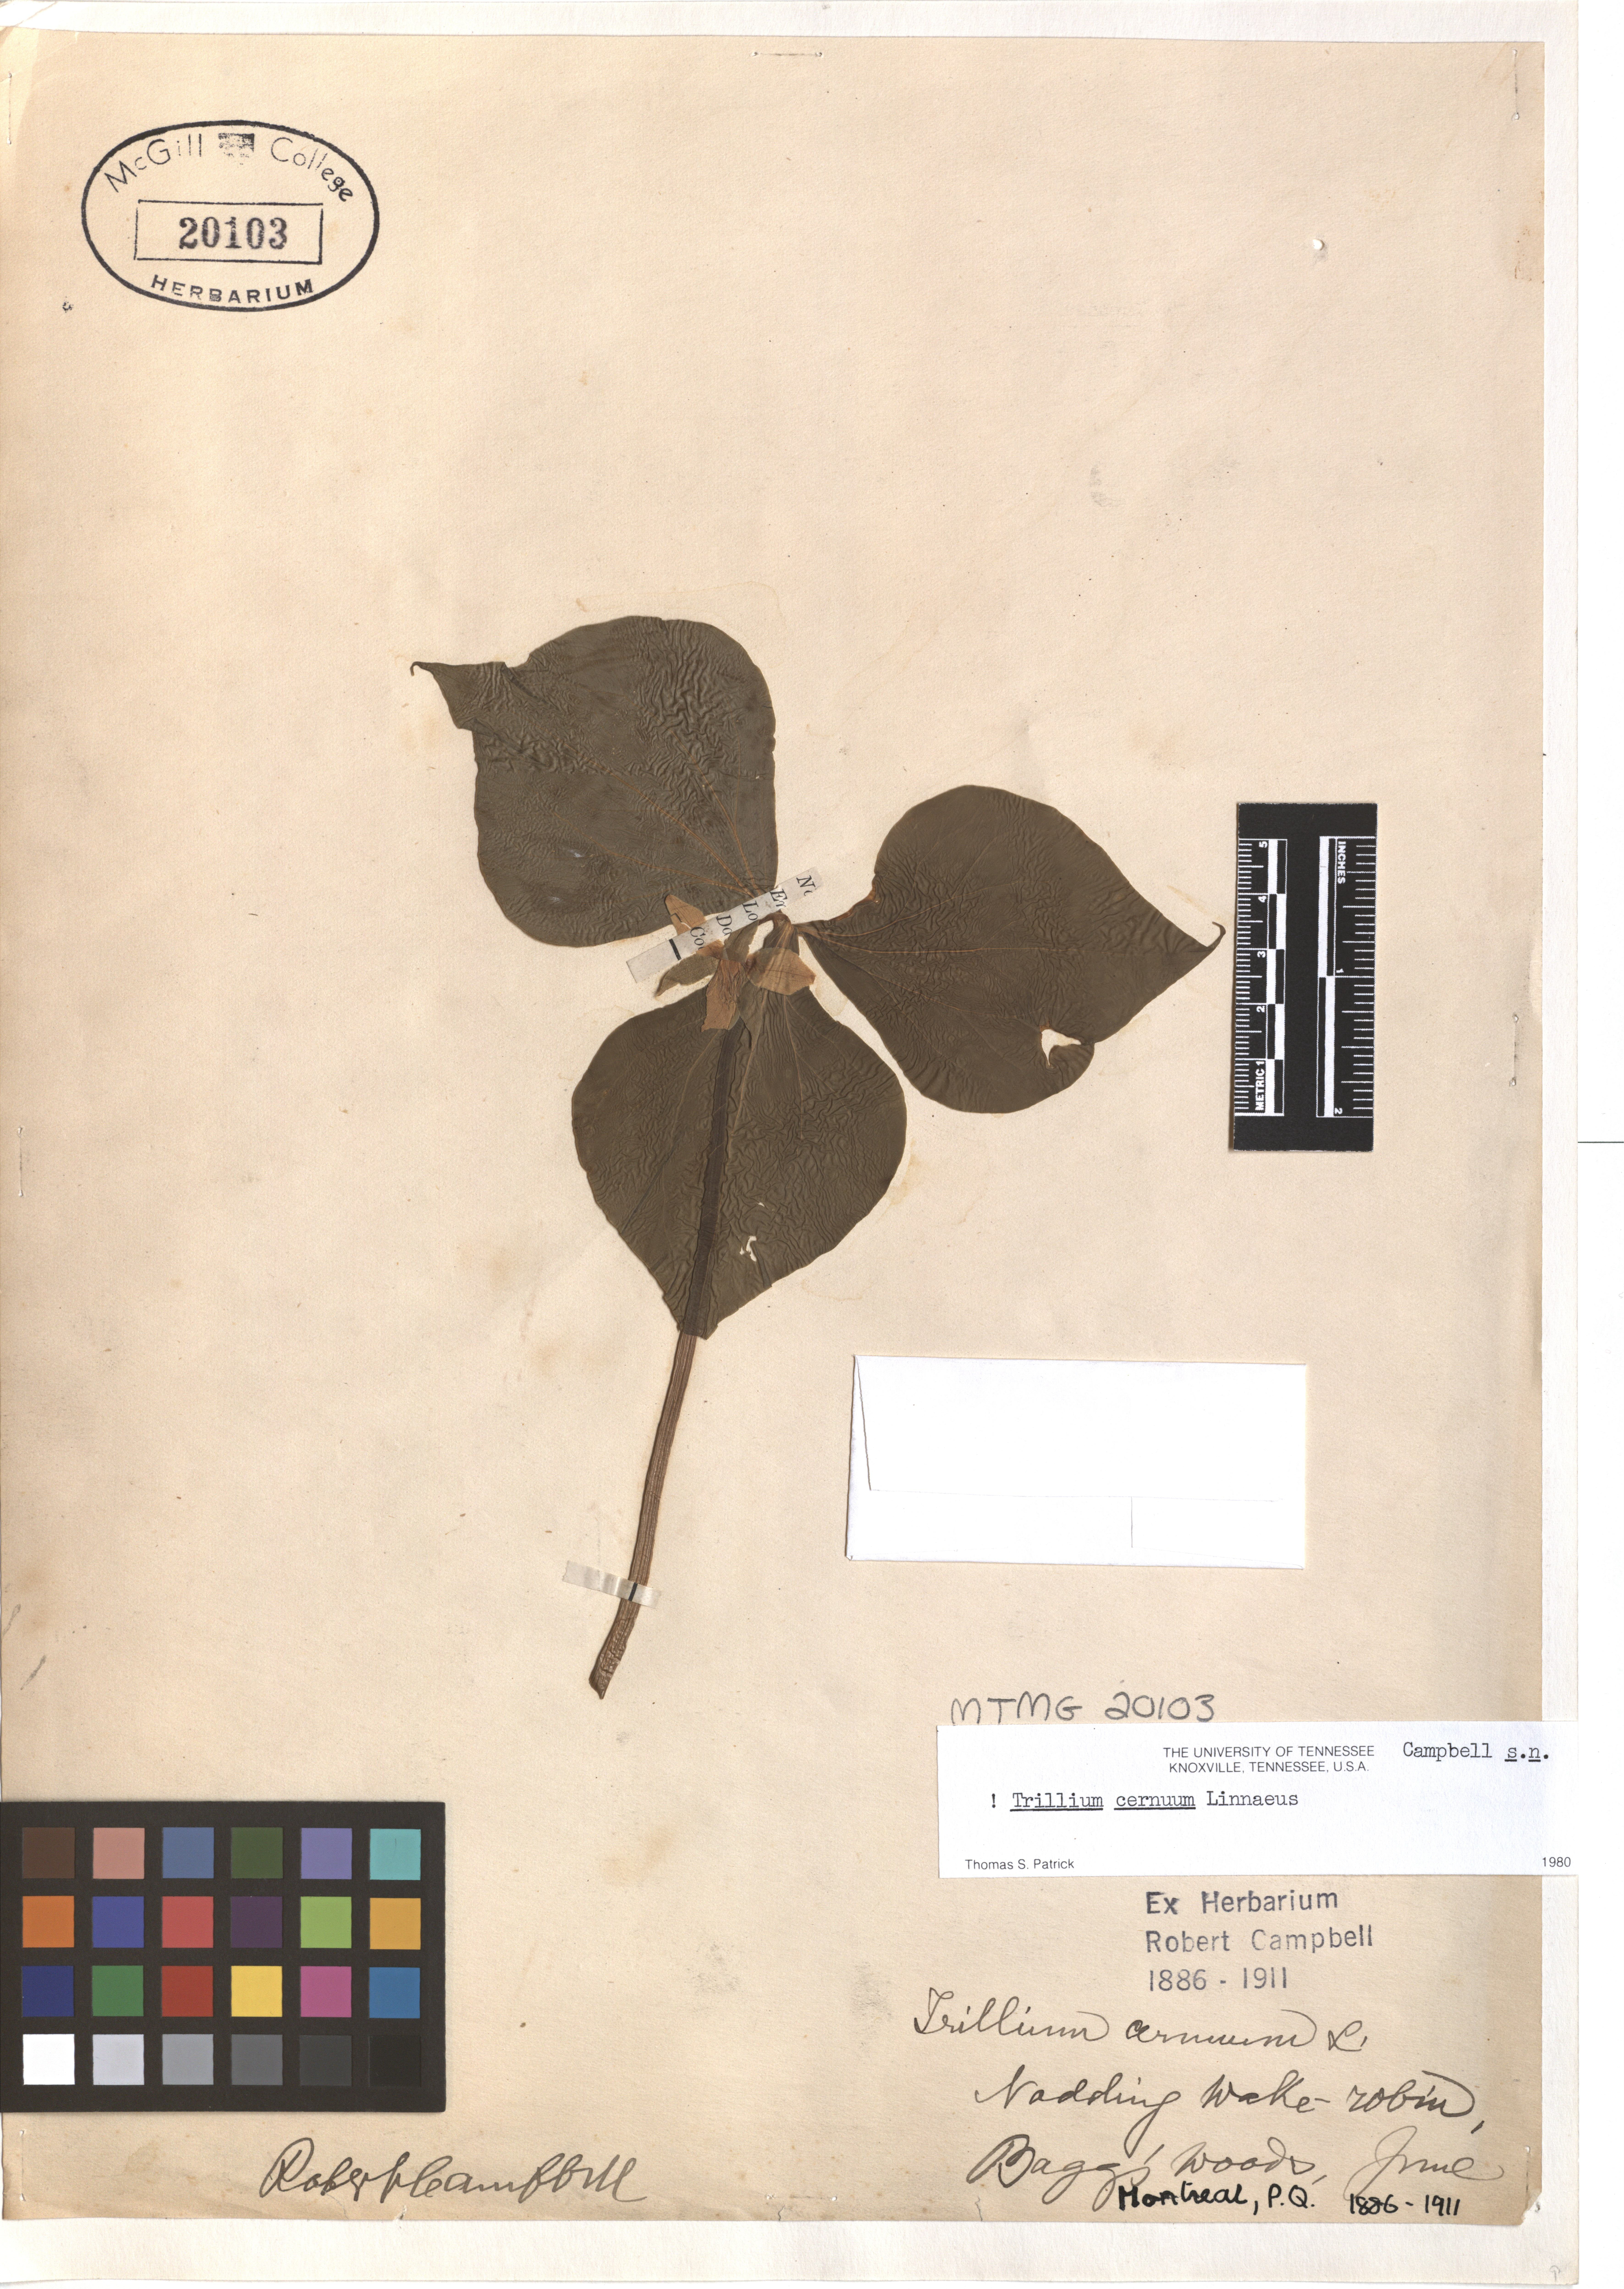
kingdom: Plantae
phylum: Tracheophyta
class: Liliopsida
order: Liliales
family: Melanthiaceae
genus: Trillium
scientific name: Trillium cernuum
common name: Nodding trillium
